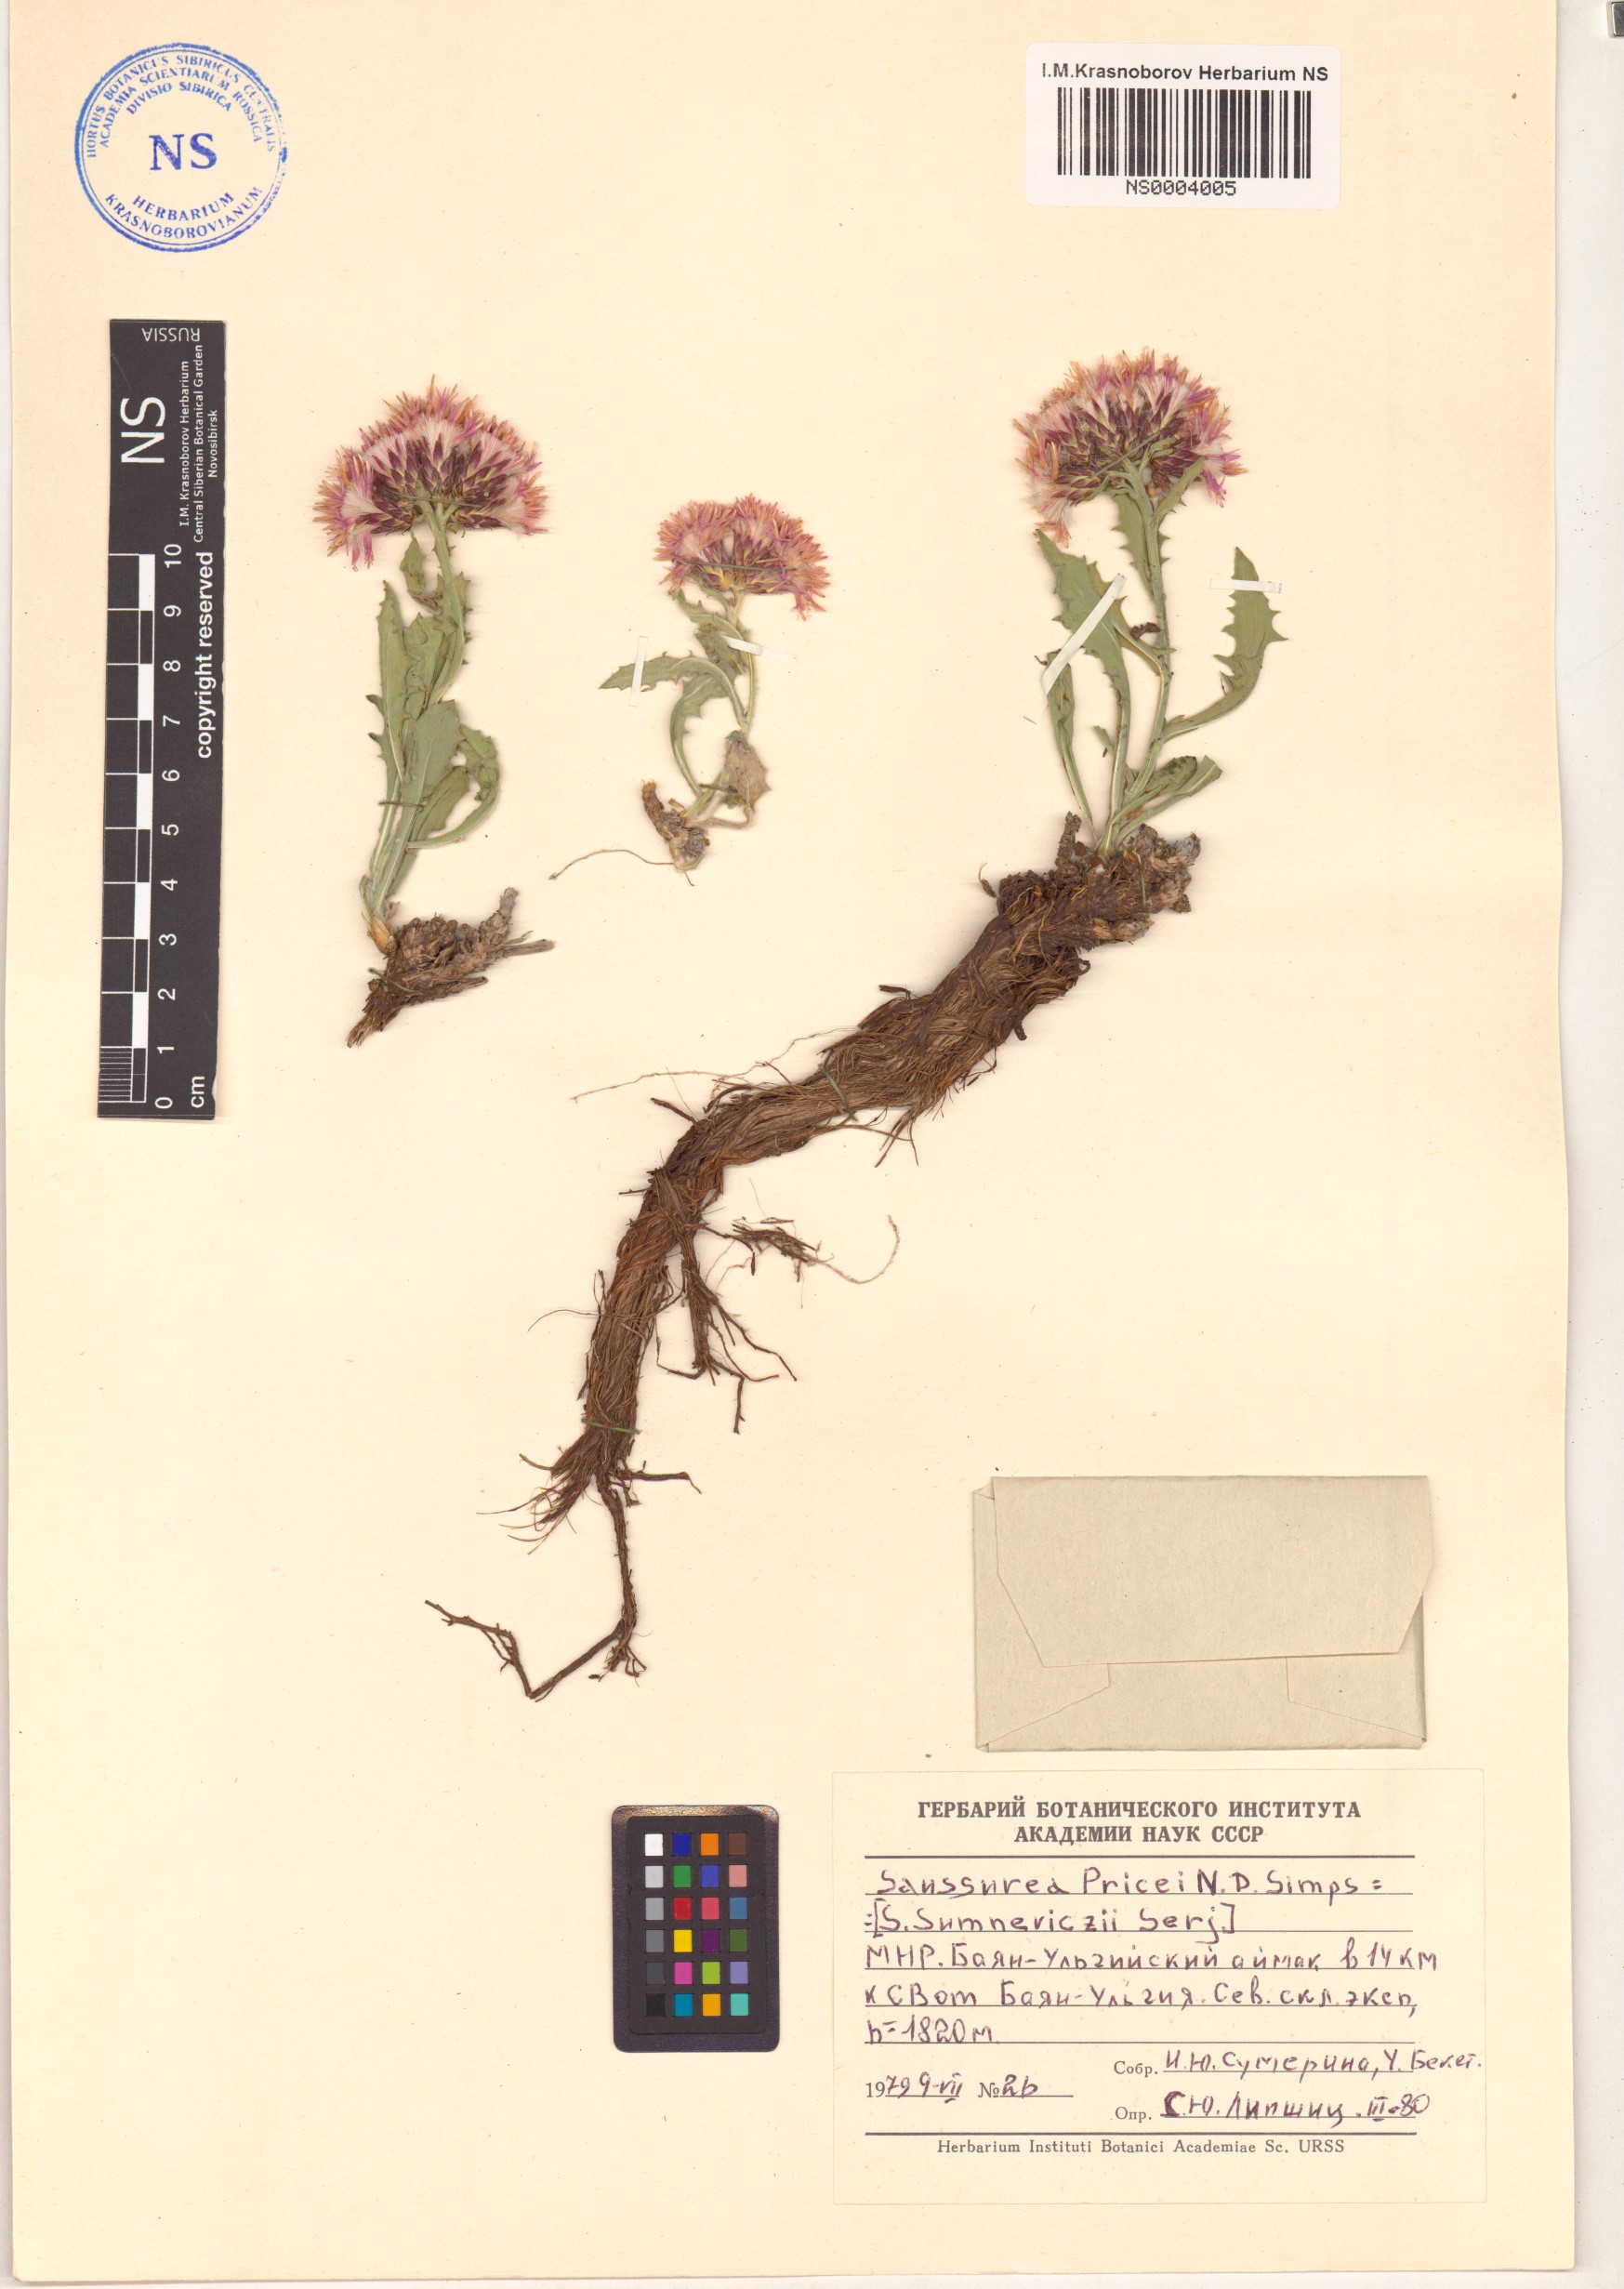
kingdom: Plantae
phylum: Tracheophyta
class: Magnoliopsida
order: Asterales
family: Asteraceae
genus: Saussurea
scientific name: Saussurea pricei
